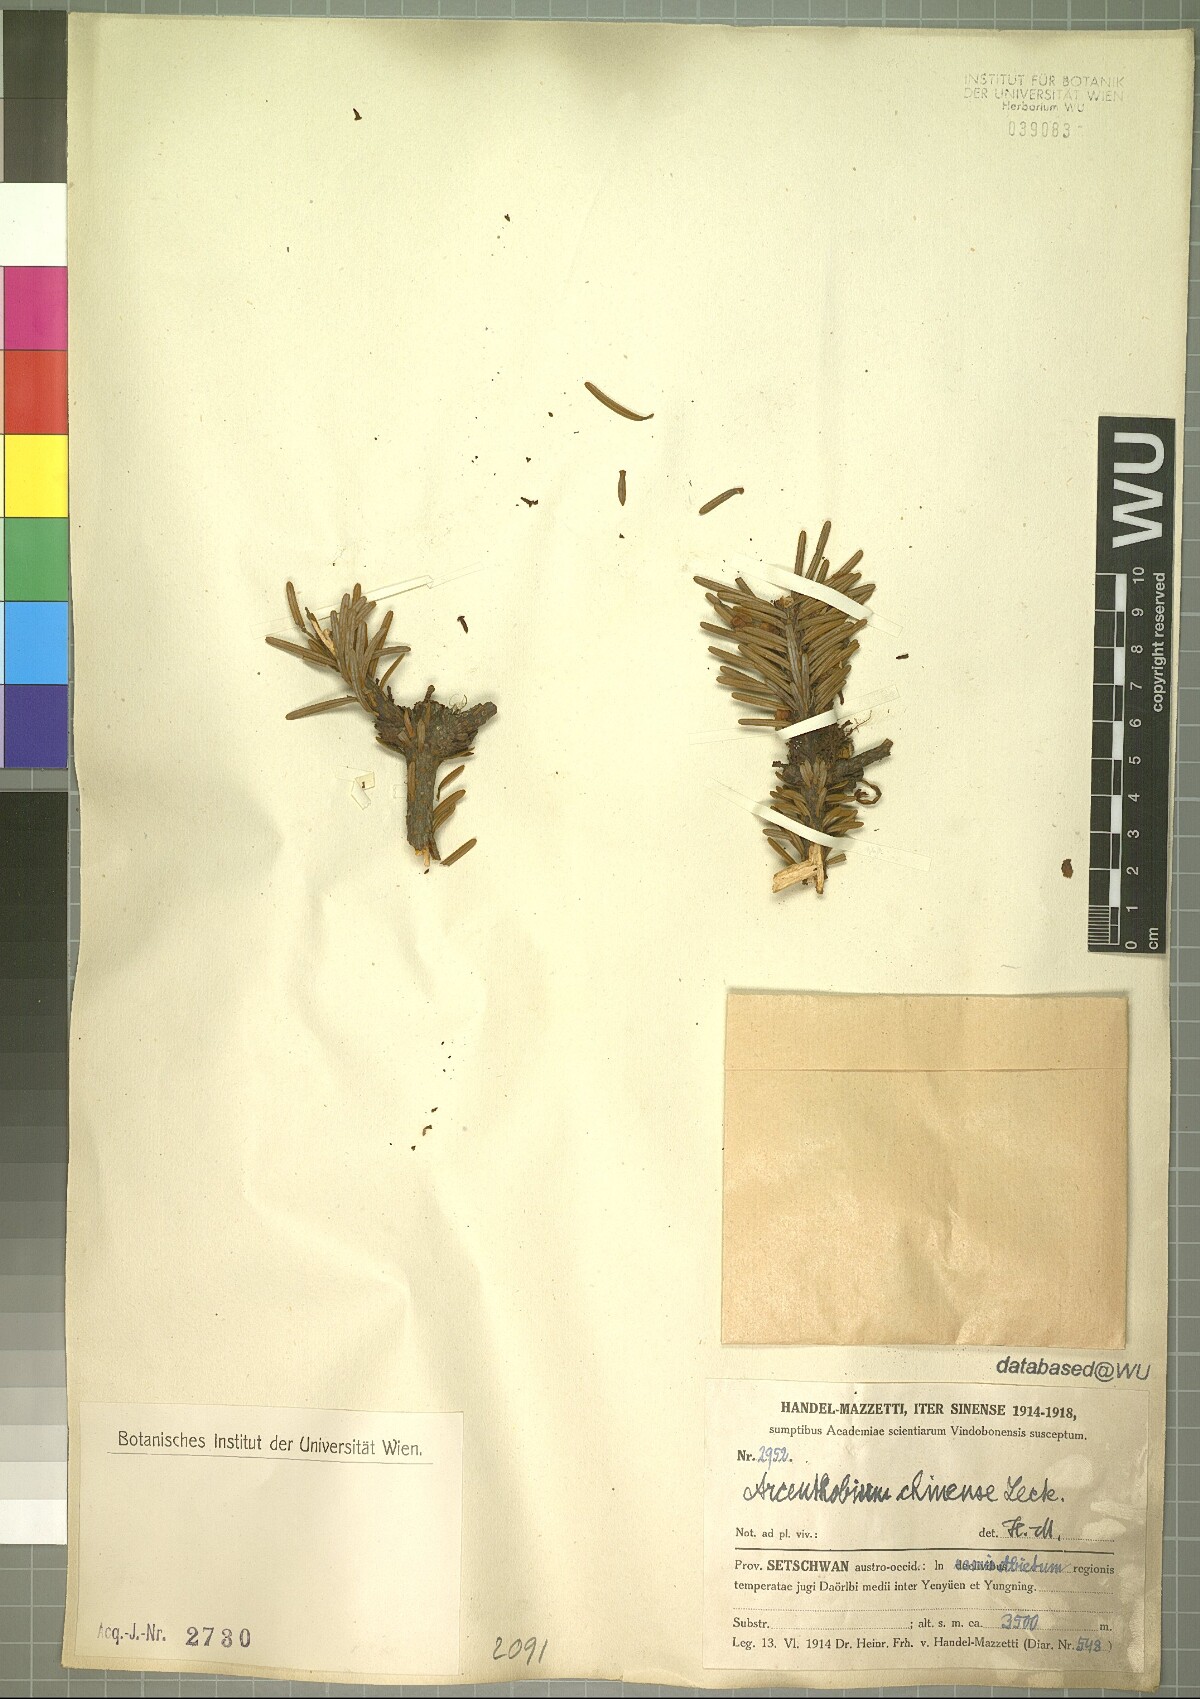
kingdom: Plantae
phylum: Tracheophyta
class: Magnoliopsida
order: Santalales
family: Viscaceae
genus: Arceuthobium
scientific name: Arceuthobium chinense
